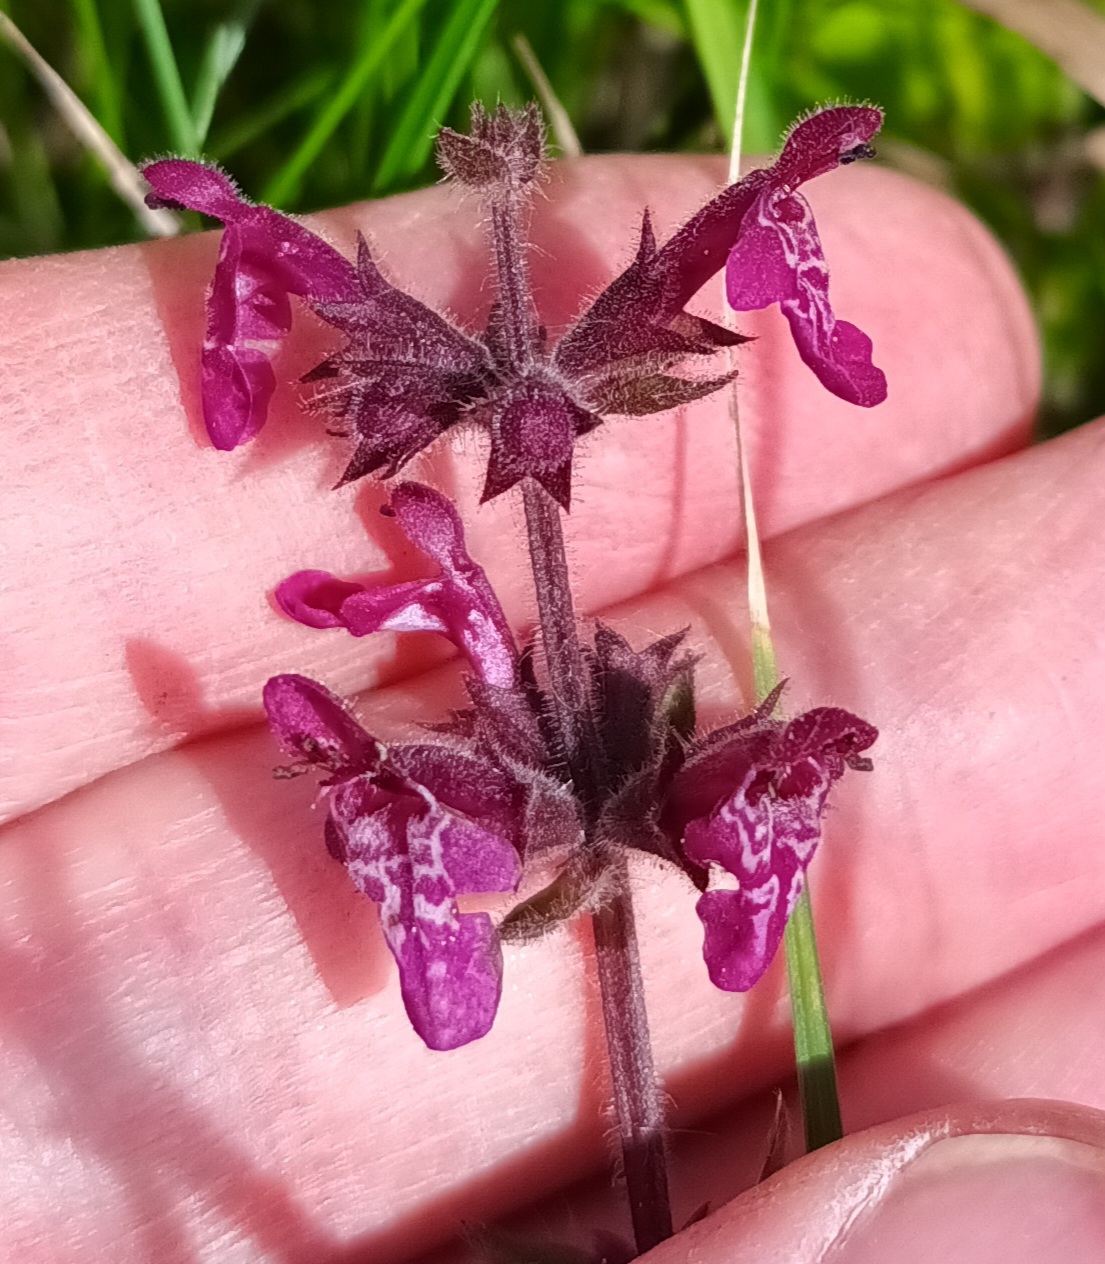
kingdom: Plantae
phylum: Tracheophyta
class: Magnoliopsida
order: Lamiales
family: Lamiaceae
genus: Stachys
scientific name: Stachys sylvatica
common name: Skov-galtetand
